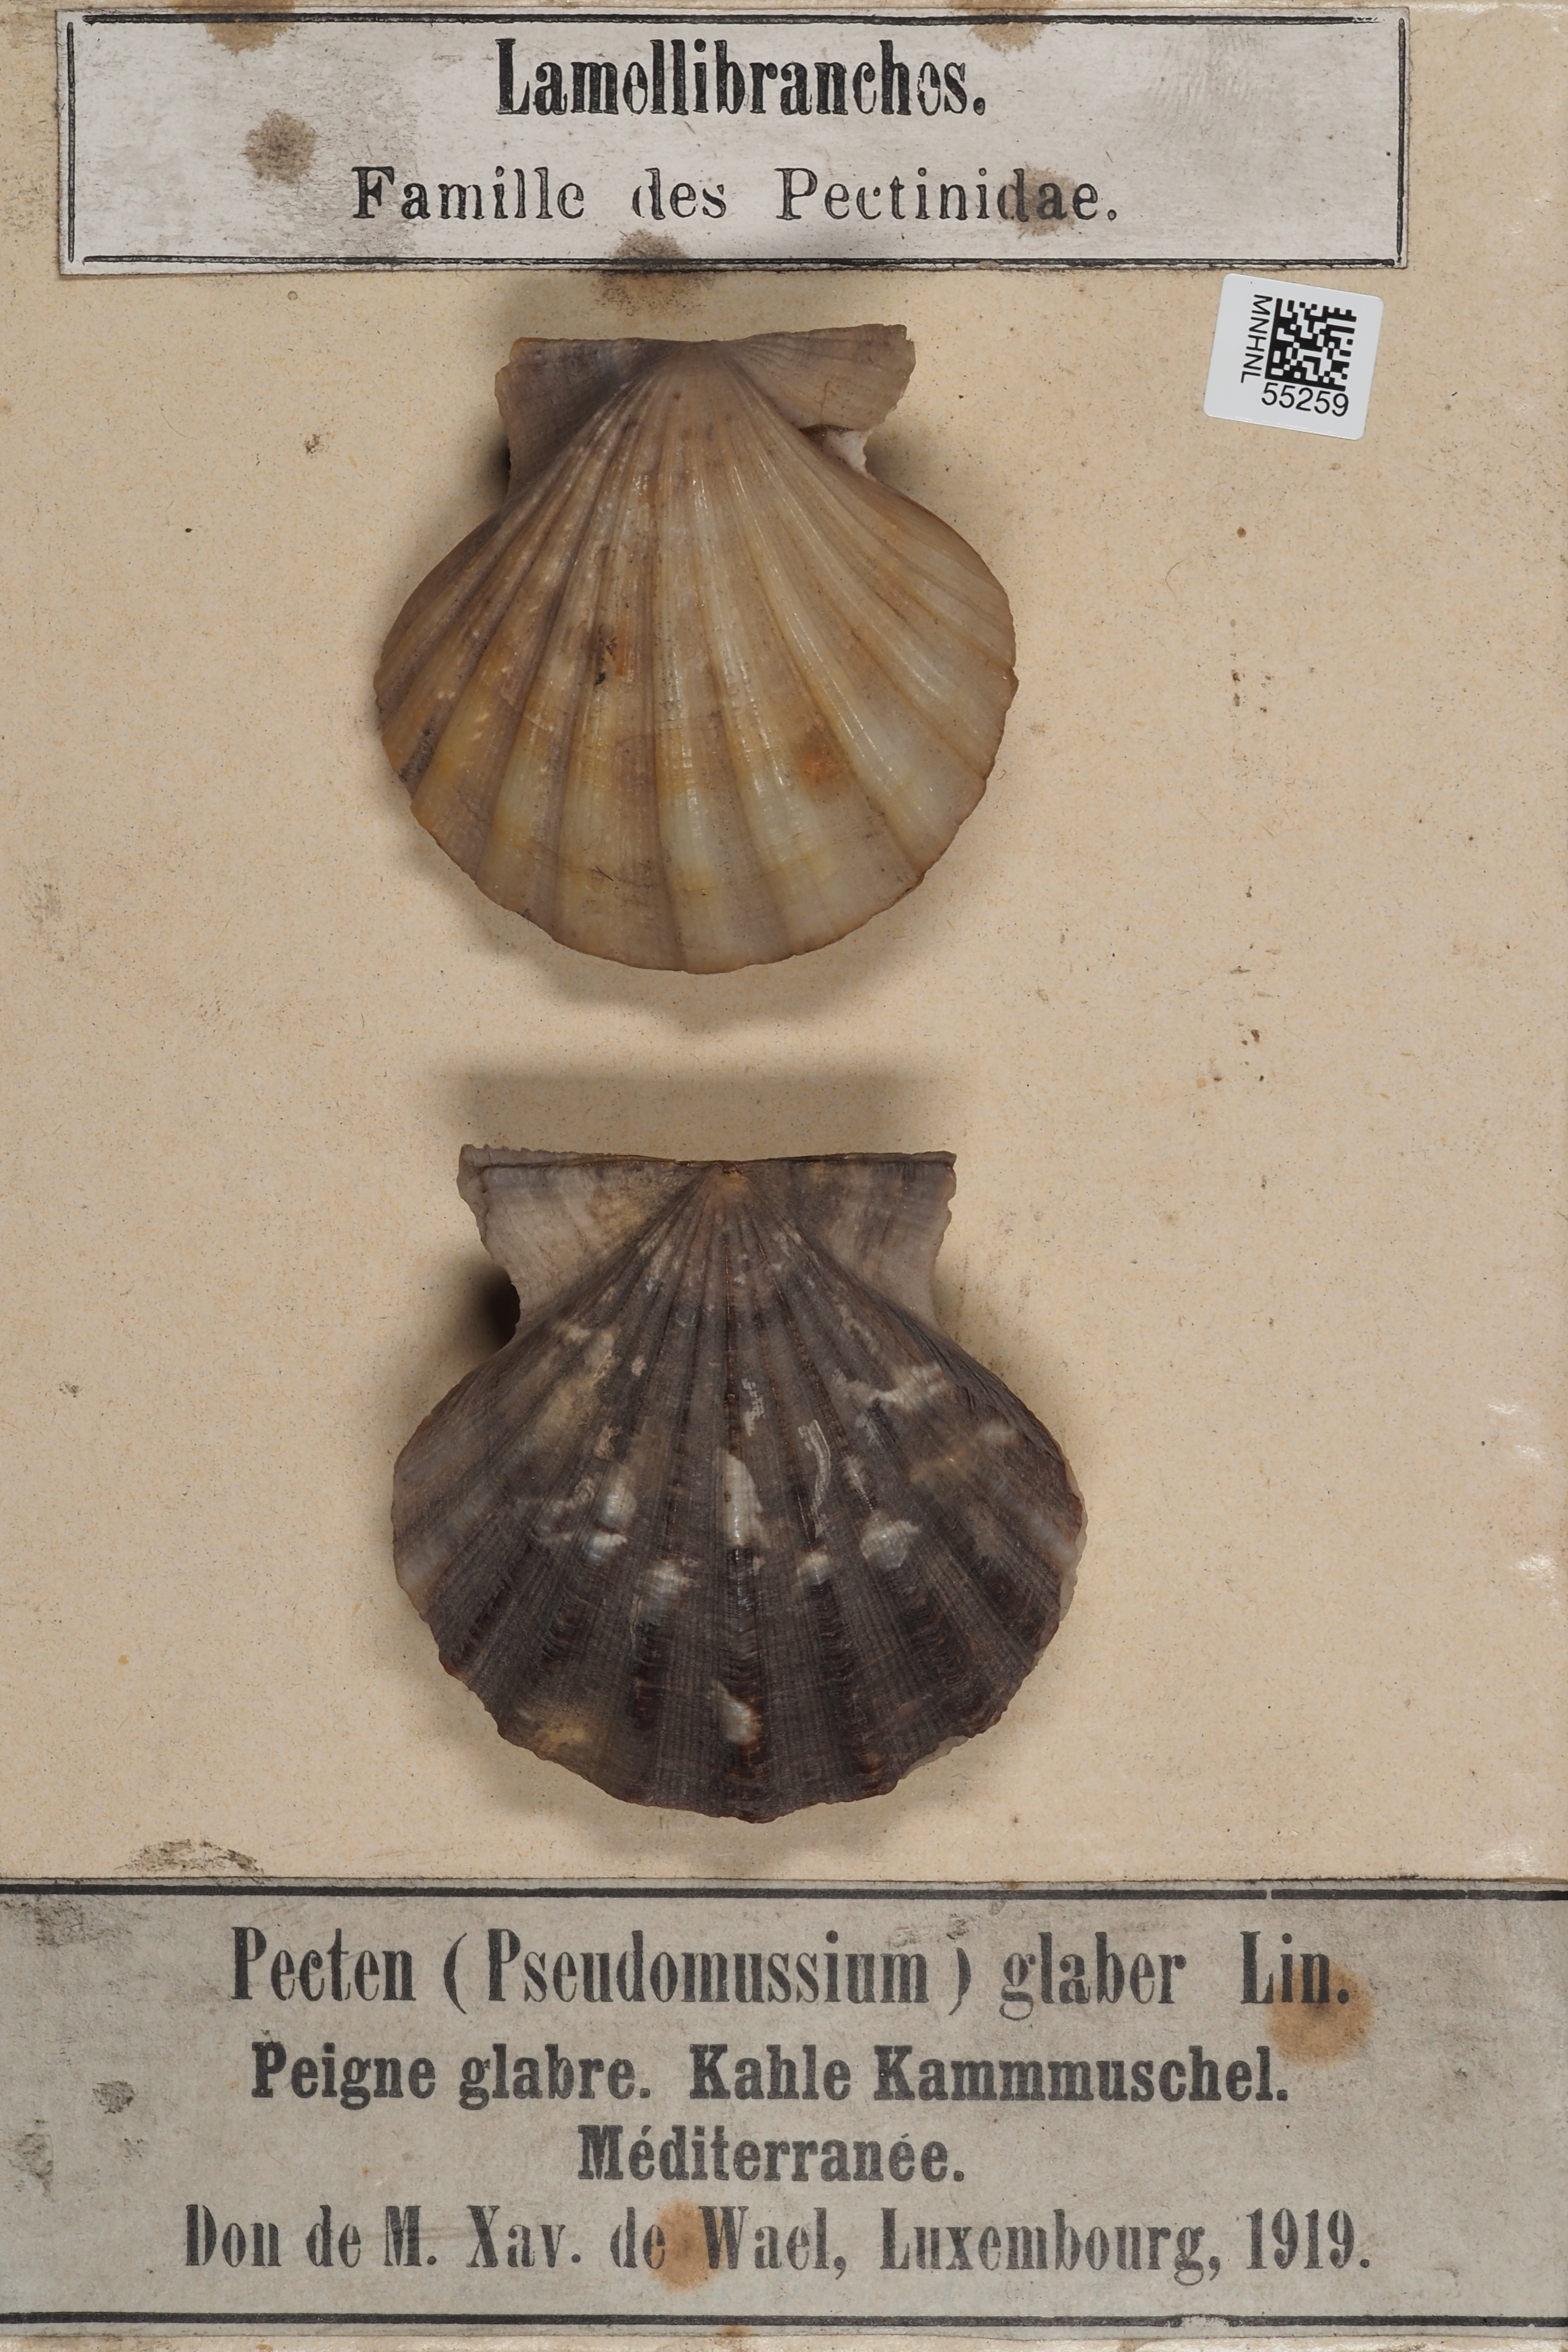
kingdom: Animalia
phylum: Mollusca
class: Bivalvia
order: Pectinida
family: Pectinidae
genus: Flexopecten
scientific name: Flexopecten glaber
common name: Smooth scallop
